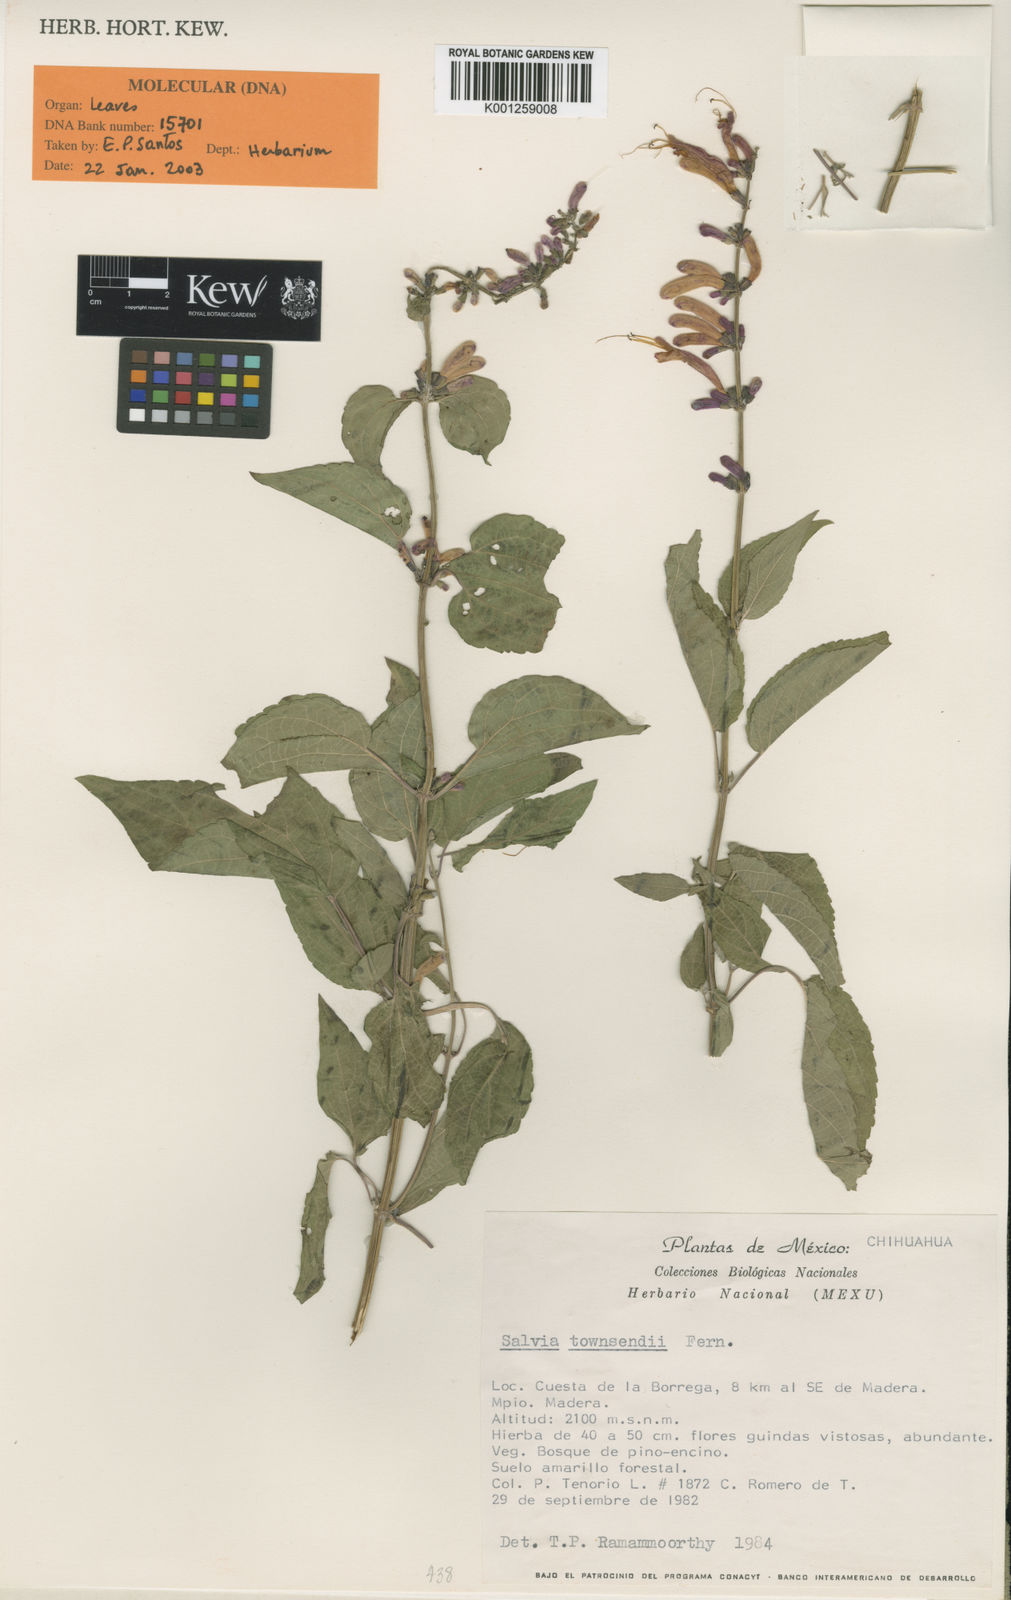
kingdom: Plantae
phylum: Tracheophyta
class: Magnoliopsida
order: Lamiales
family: Lamiaceae
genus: Salvia
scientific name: Salvia townsendii
